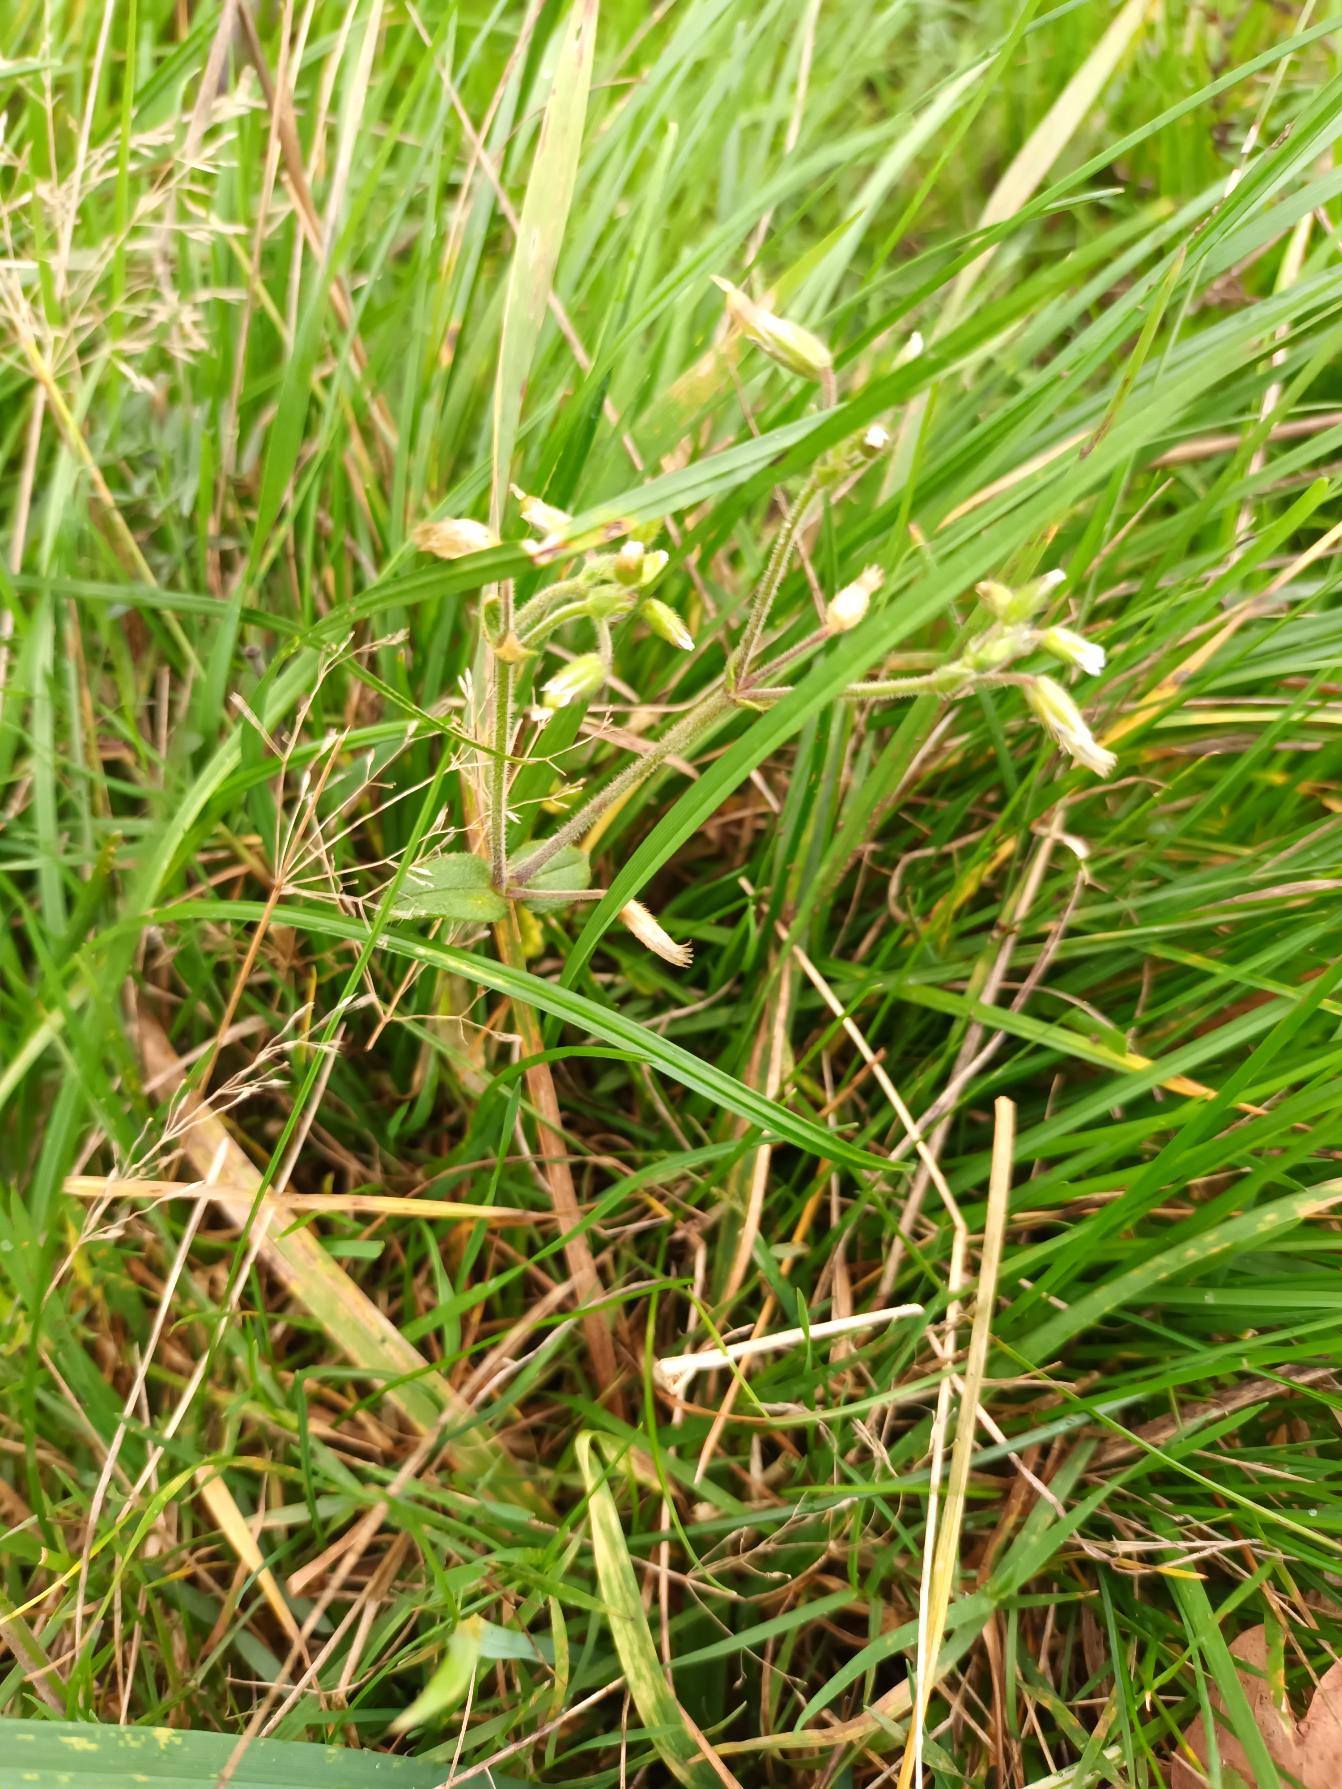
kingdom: Plantae
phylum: Tracheophyta
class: Magnoliopsida
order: Caryophyllales
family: Caryophyllaceae
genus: Cerastium
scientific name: Cerastium fontanum
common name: Almindelig hønsetarm
